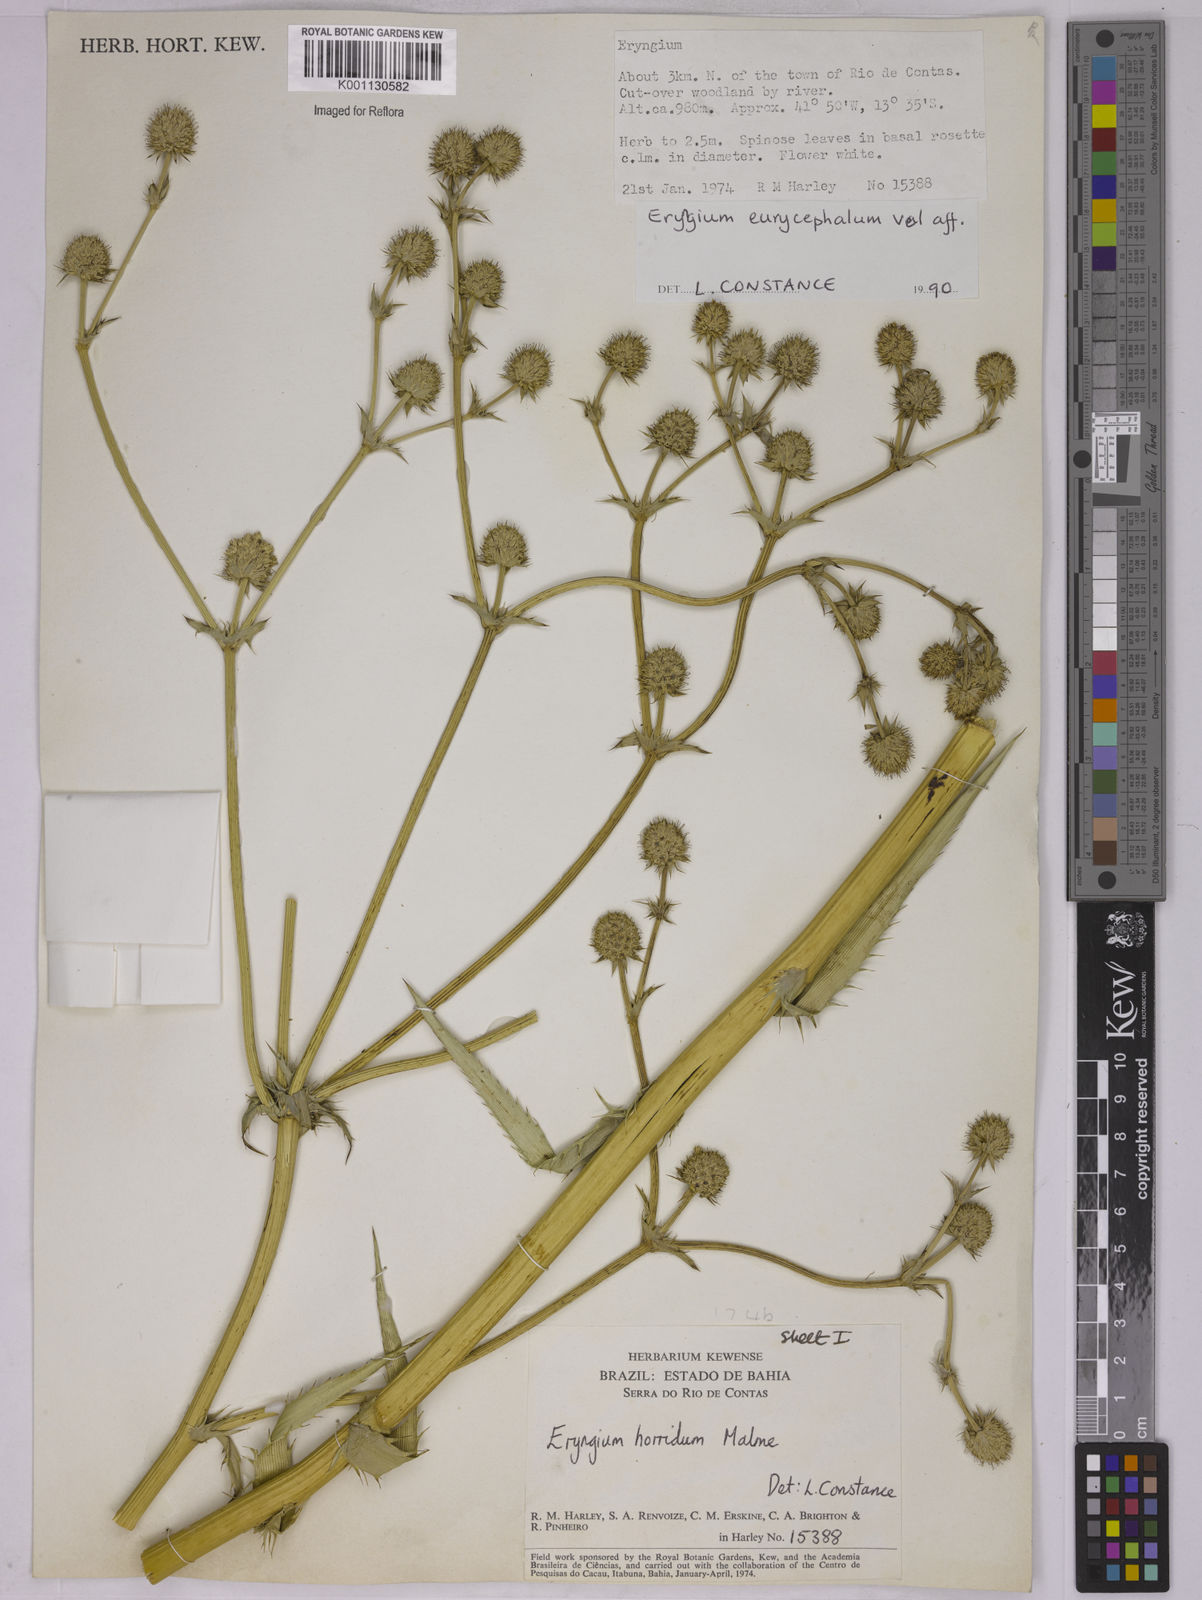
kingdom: Plantae
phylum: Tracheophyta
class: Magnoliopsida
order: Apiales
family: Apiaceae
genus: Eryngium
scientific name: Eryngium horridum
